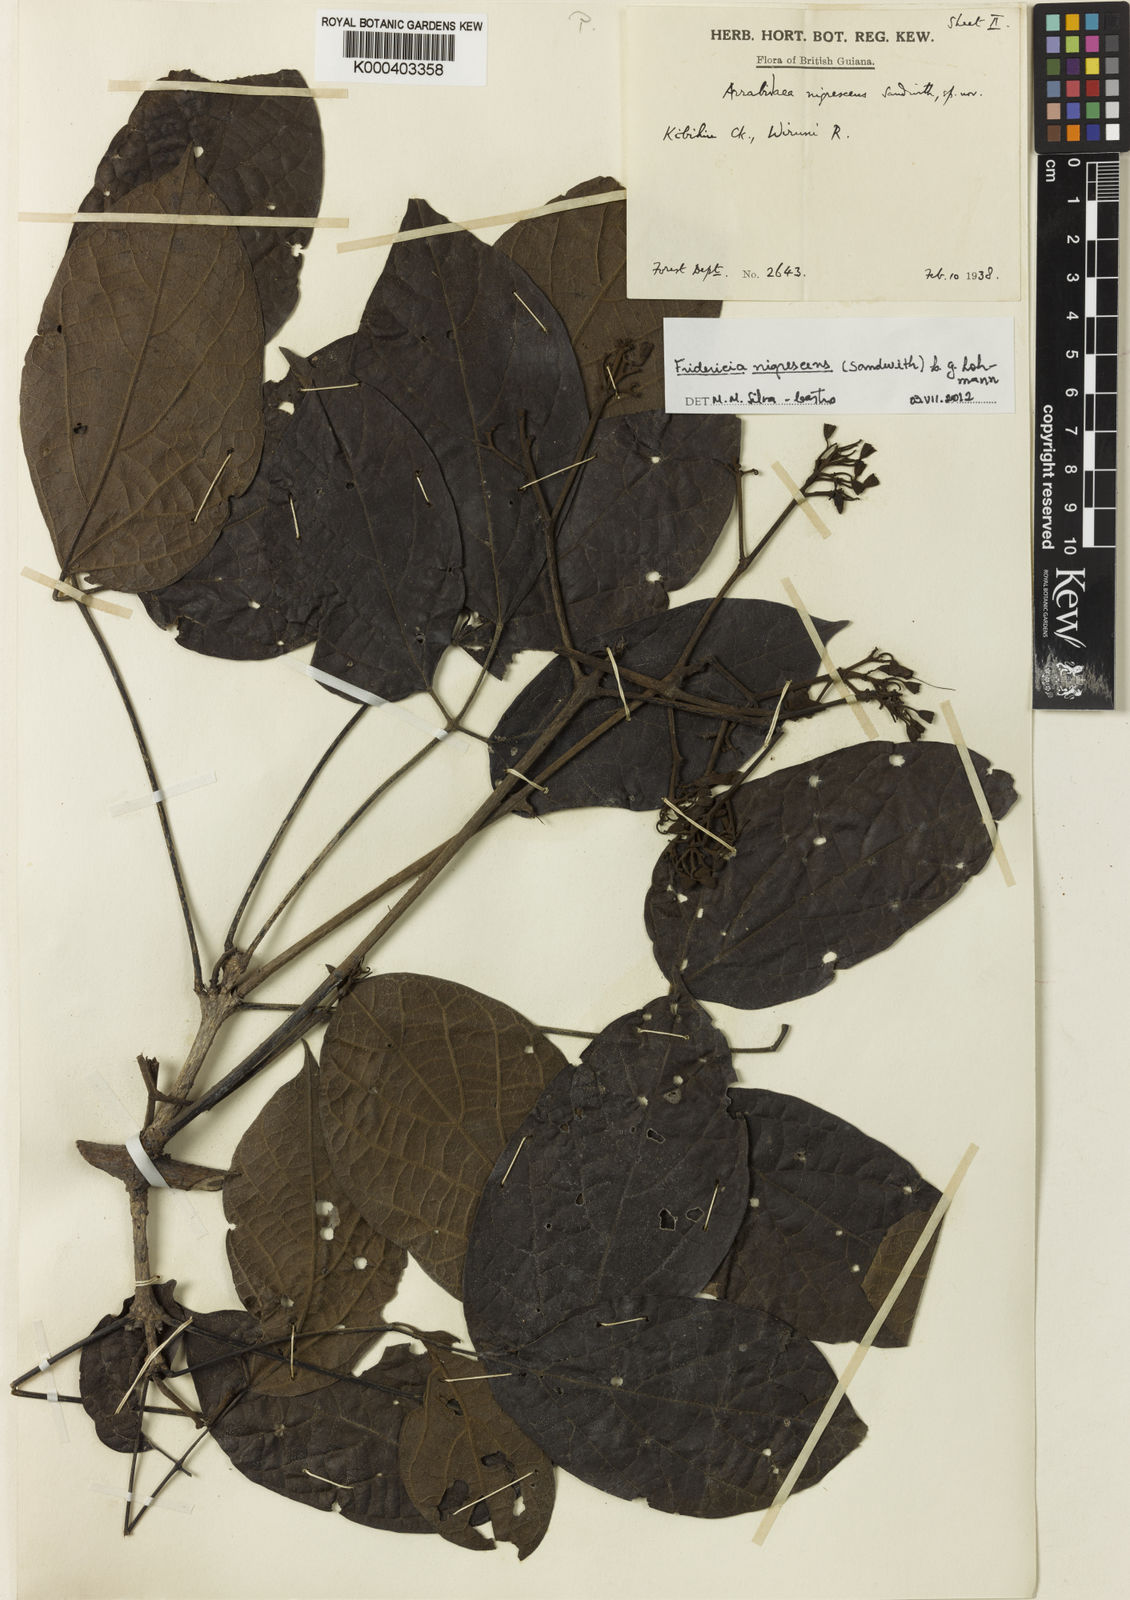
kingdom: Plantae
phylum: Tracheophyta
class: Magnoliopsida
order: Lamiales
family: Bignoniaceae
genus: Fridericia
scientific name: Fridericia nigrescens
